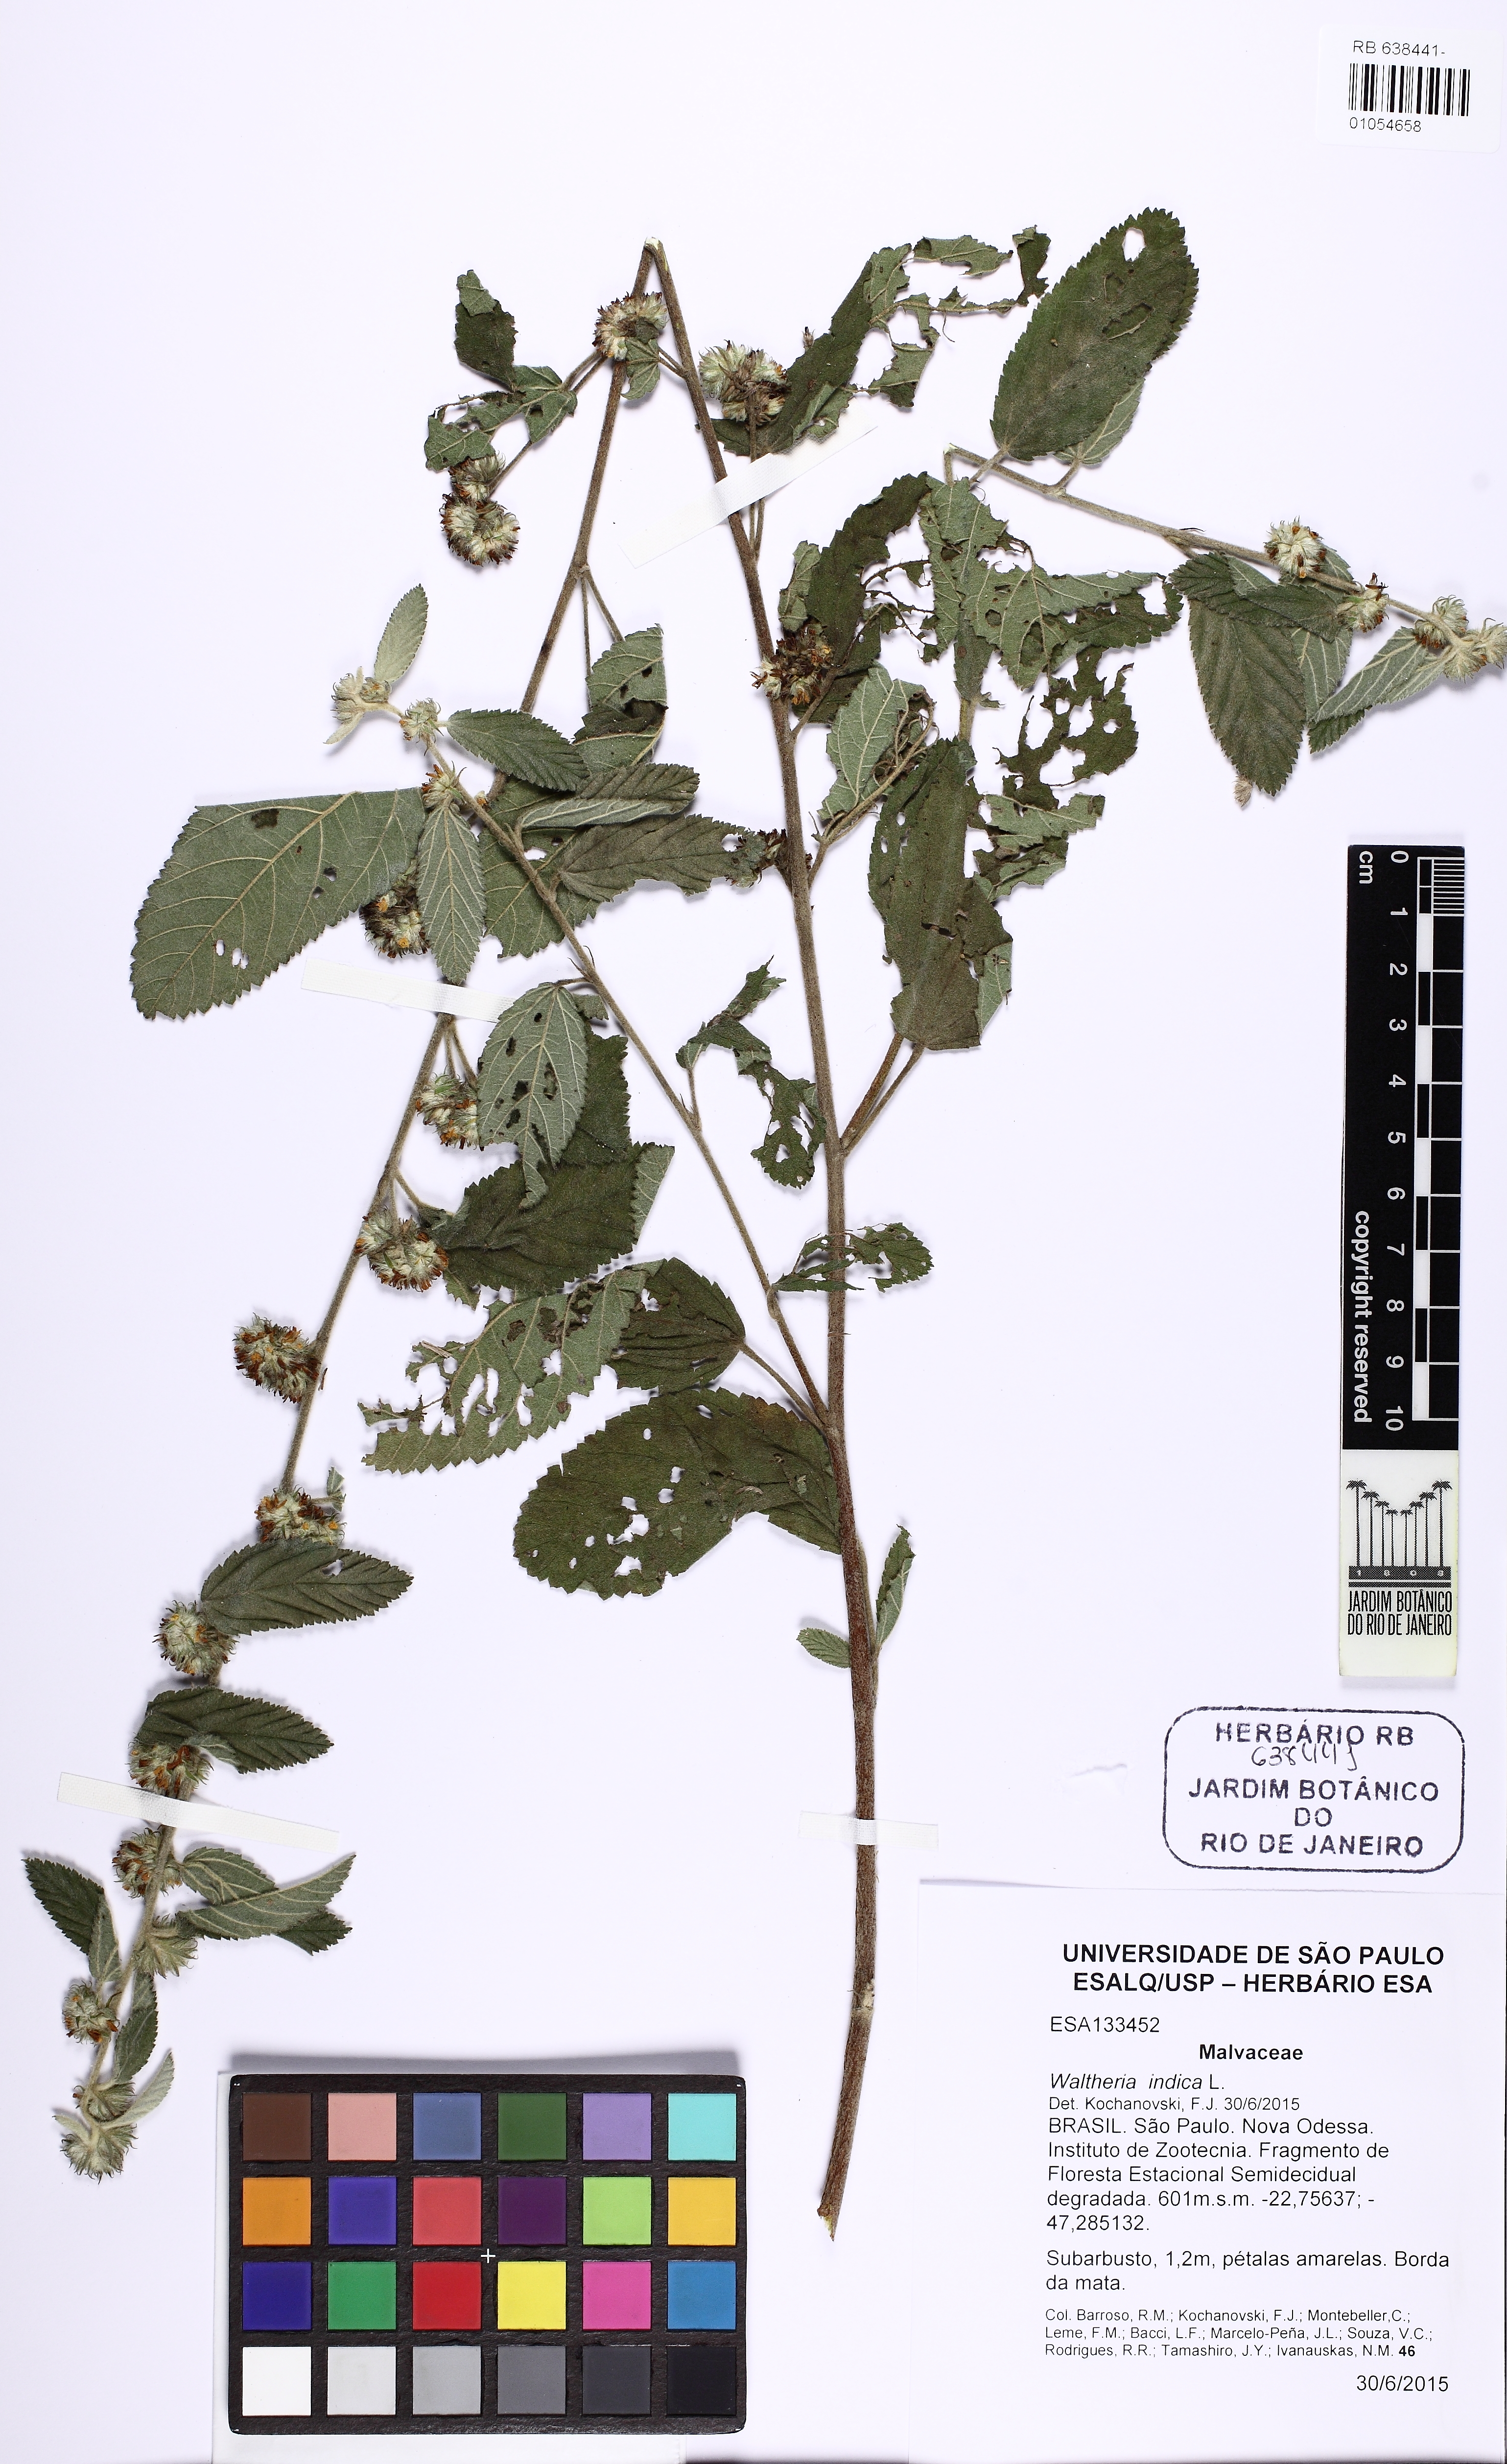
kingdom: Plantae
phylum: Tracheophyta
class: Magnoliopsida
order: Malvales
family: Malvaceae
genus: Waltheria
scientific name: Waltheria indica
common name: Leather-coat
